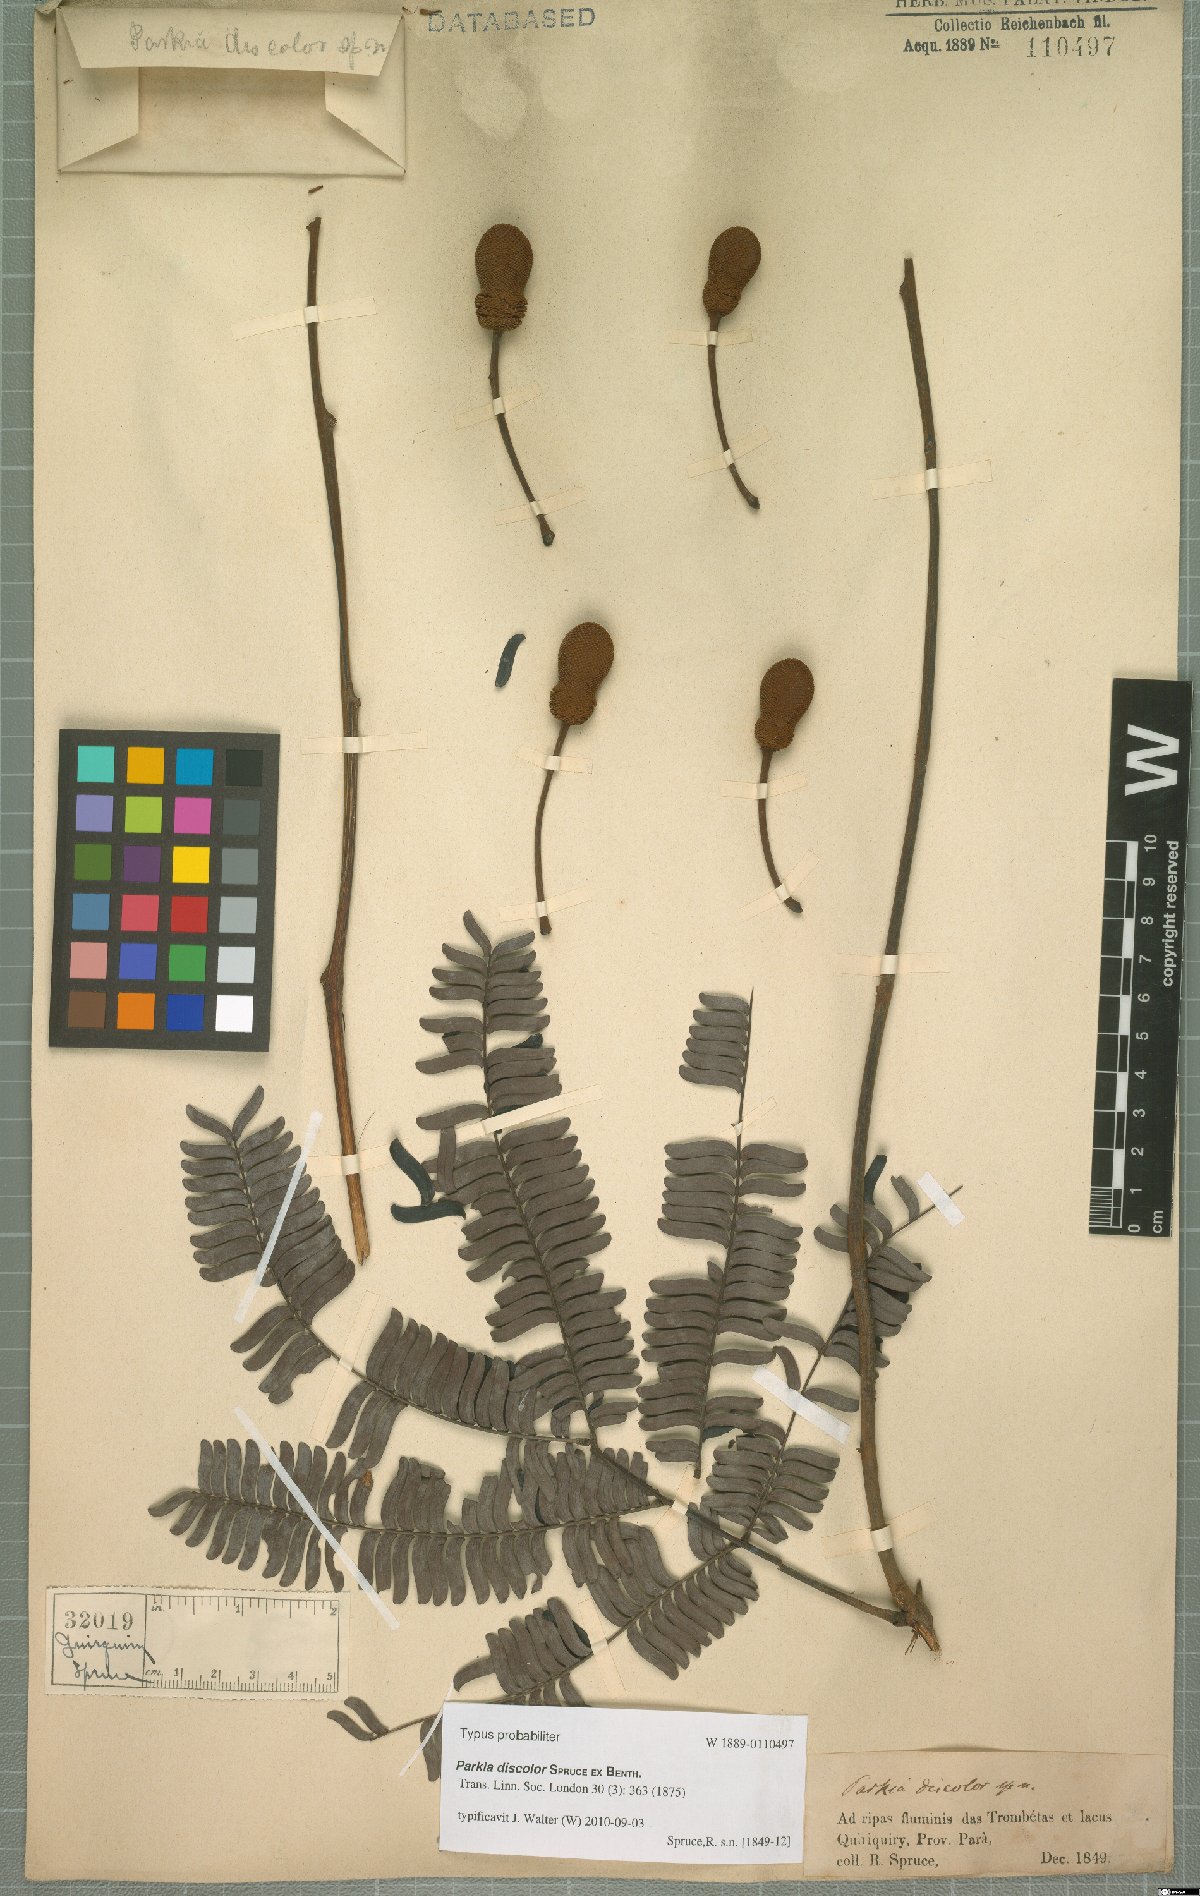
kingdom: Plantae
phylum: Tracheophyta
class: Magnoliopsida
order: Fabales
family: Fabaceae
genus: Parkia
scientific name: Parkia discolor
